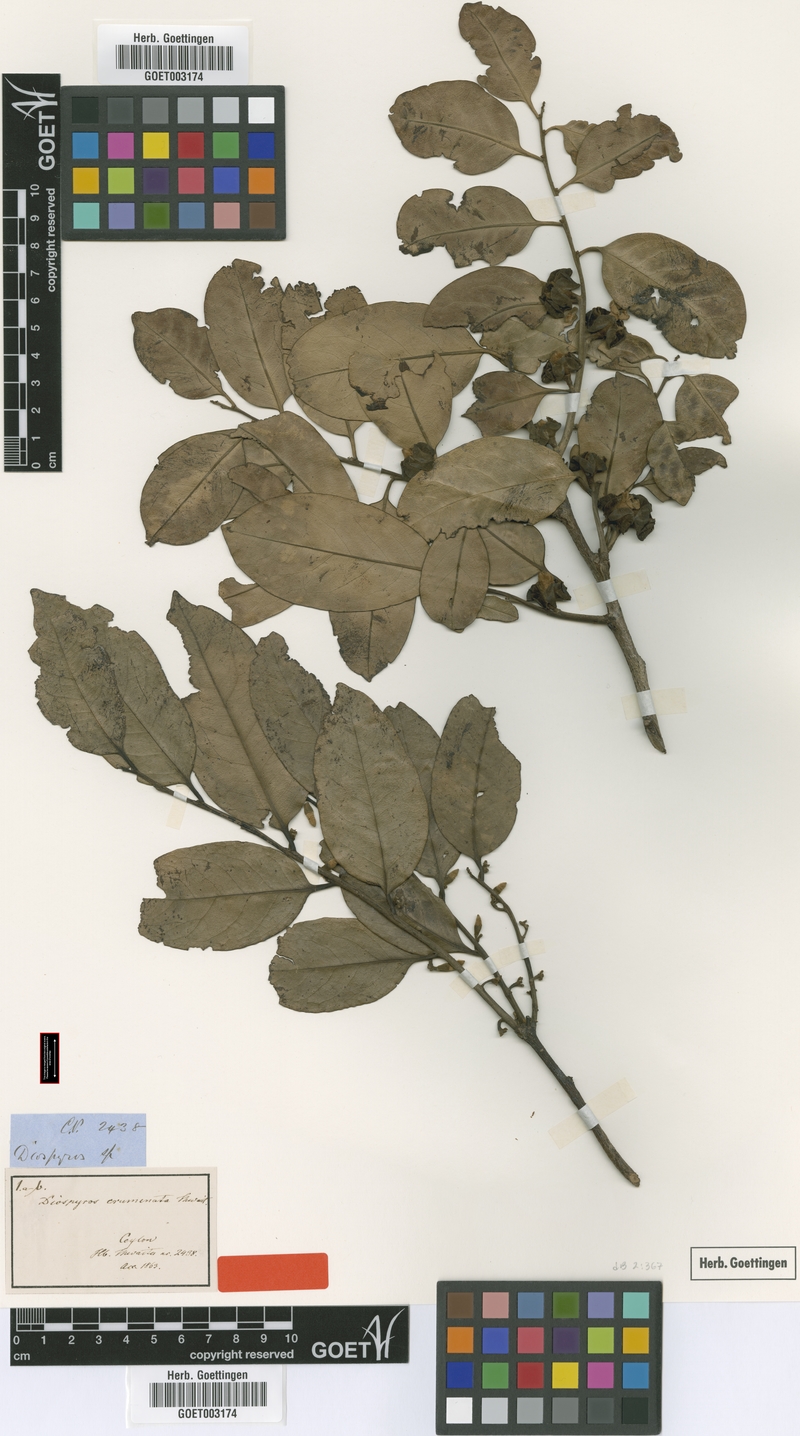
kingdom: Plantae
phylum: Tracheophyta
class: Magnoliopsida
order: Ericales
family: Ebenaceae
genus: Diospyros
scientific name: Diospyros crumenata
